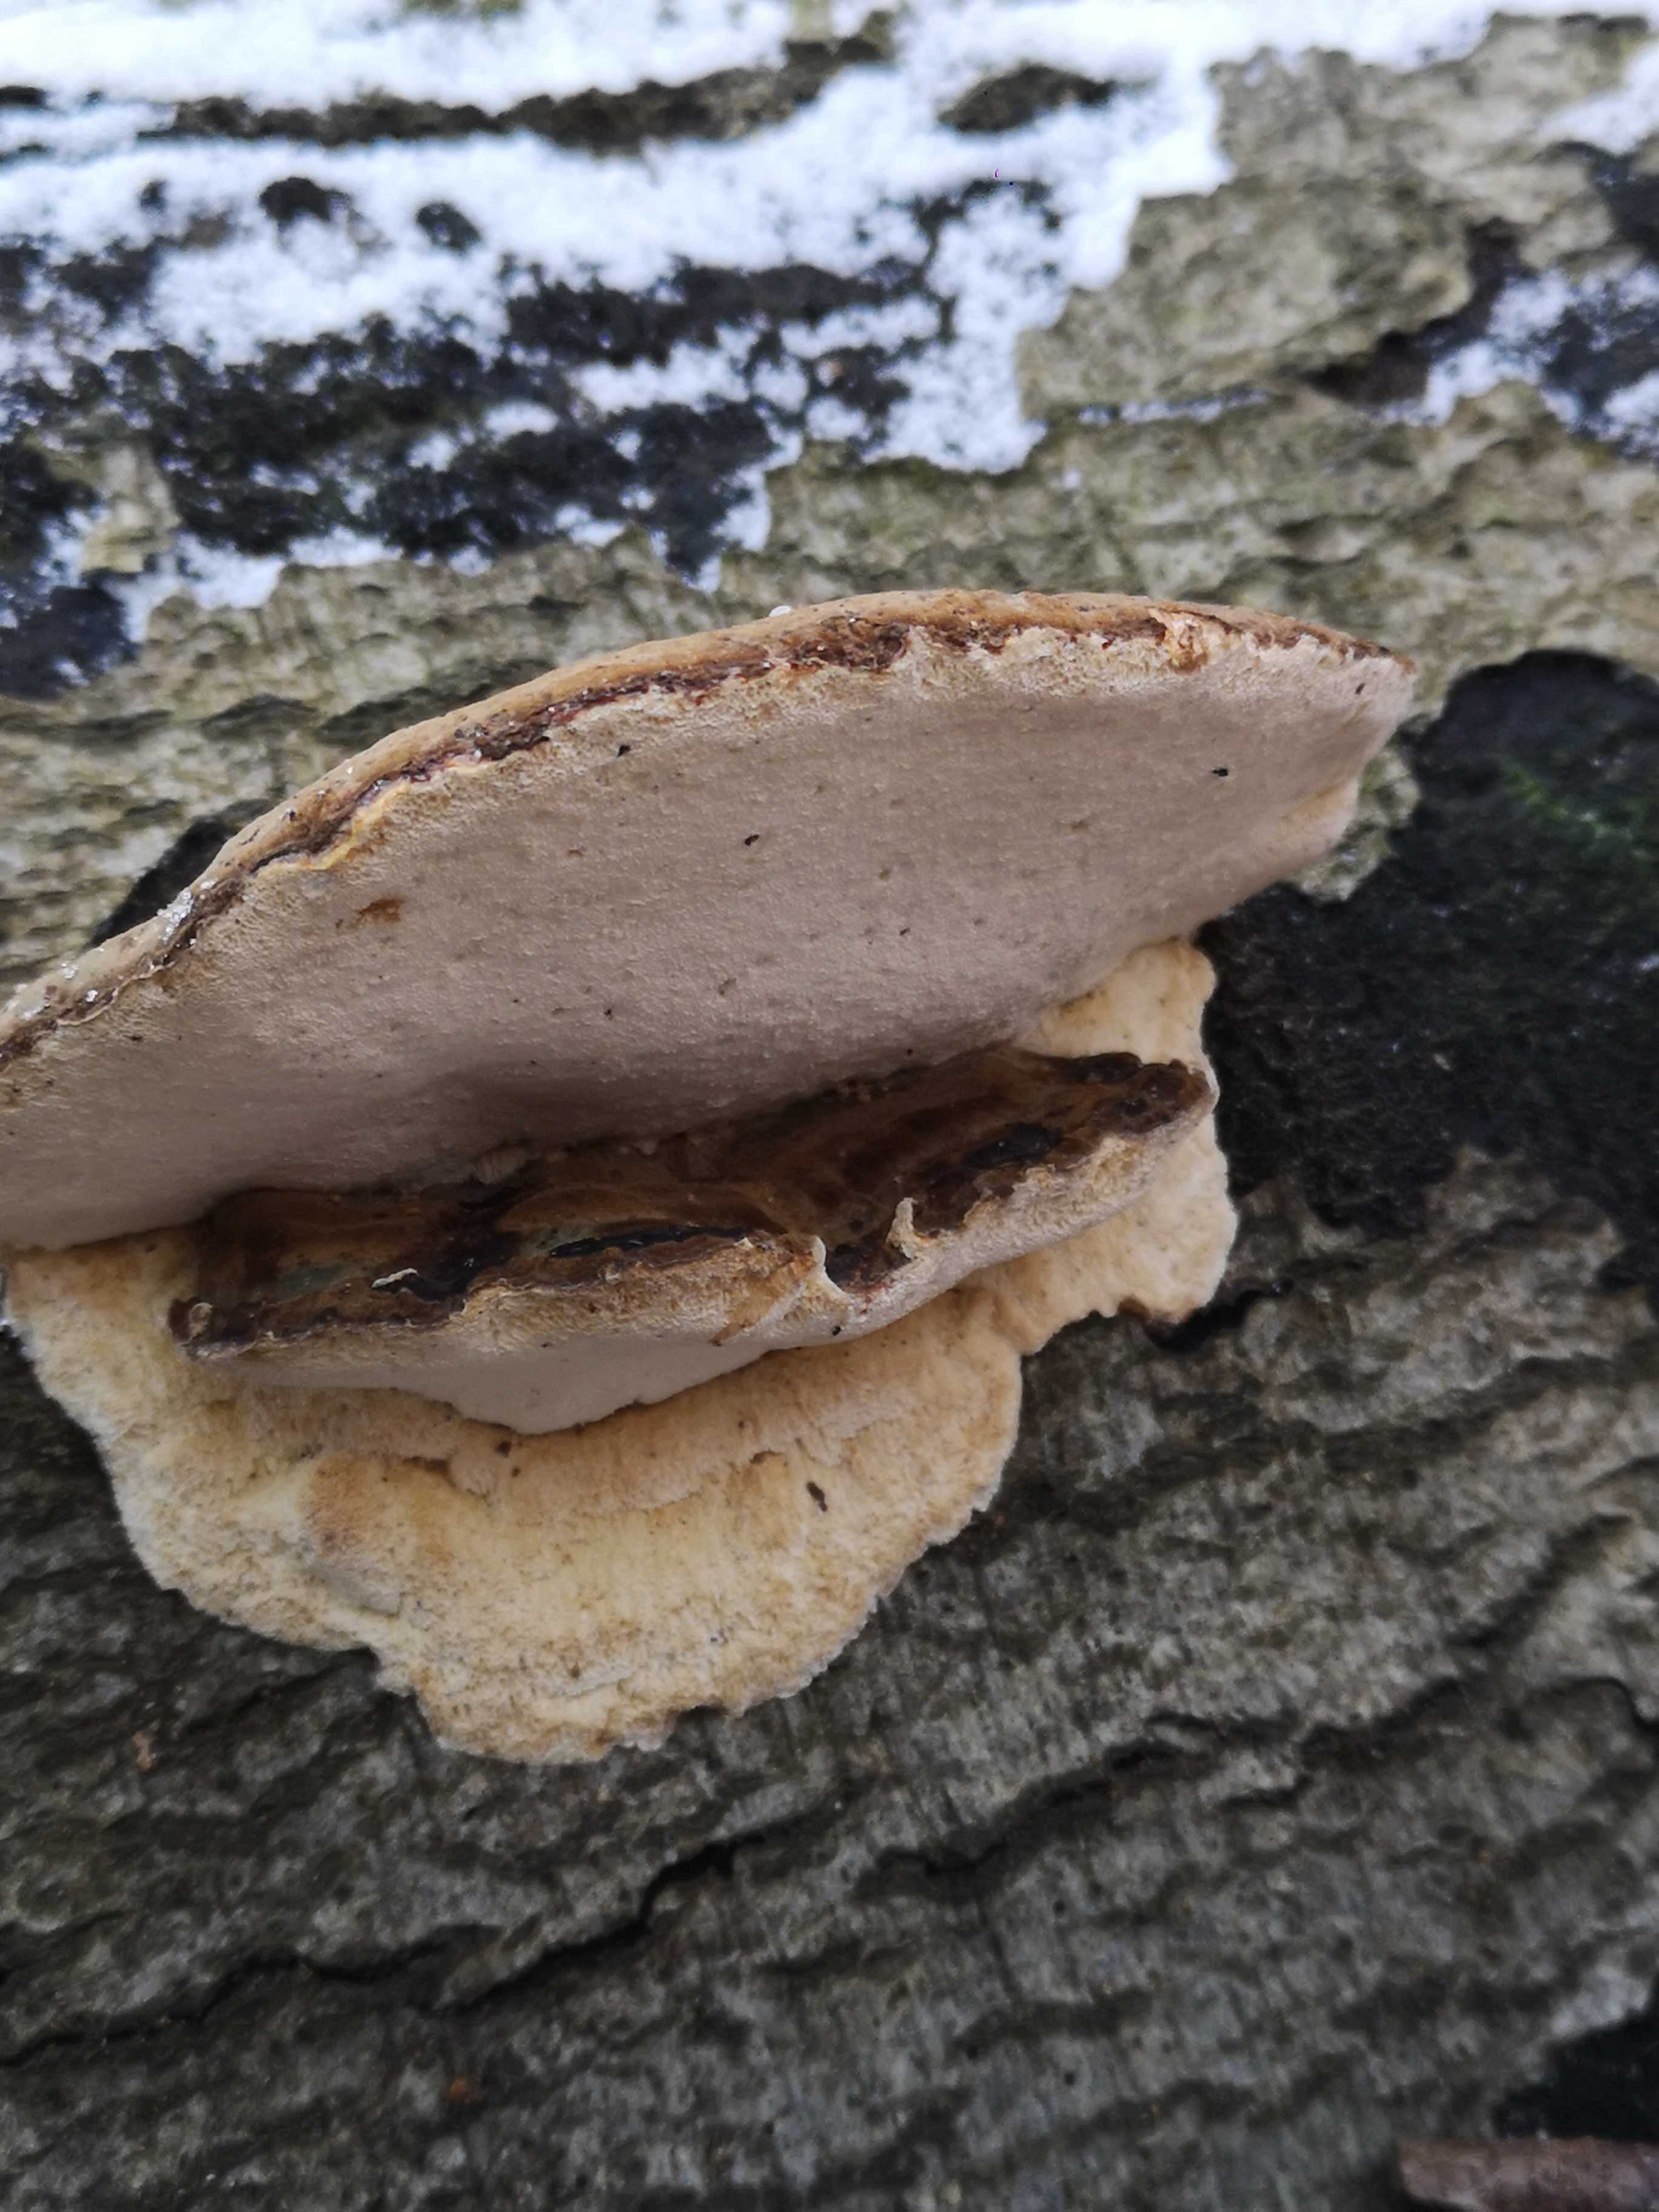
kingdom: Fungi
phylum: Basidiomycota
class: Agaricomycetes
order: Polyporales
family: Ischnodermataceae
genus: Ischnoderma
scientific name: Ischnoderma resinosum
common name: løv-tjæreporesvamp
